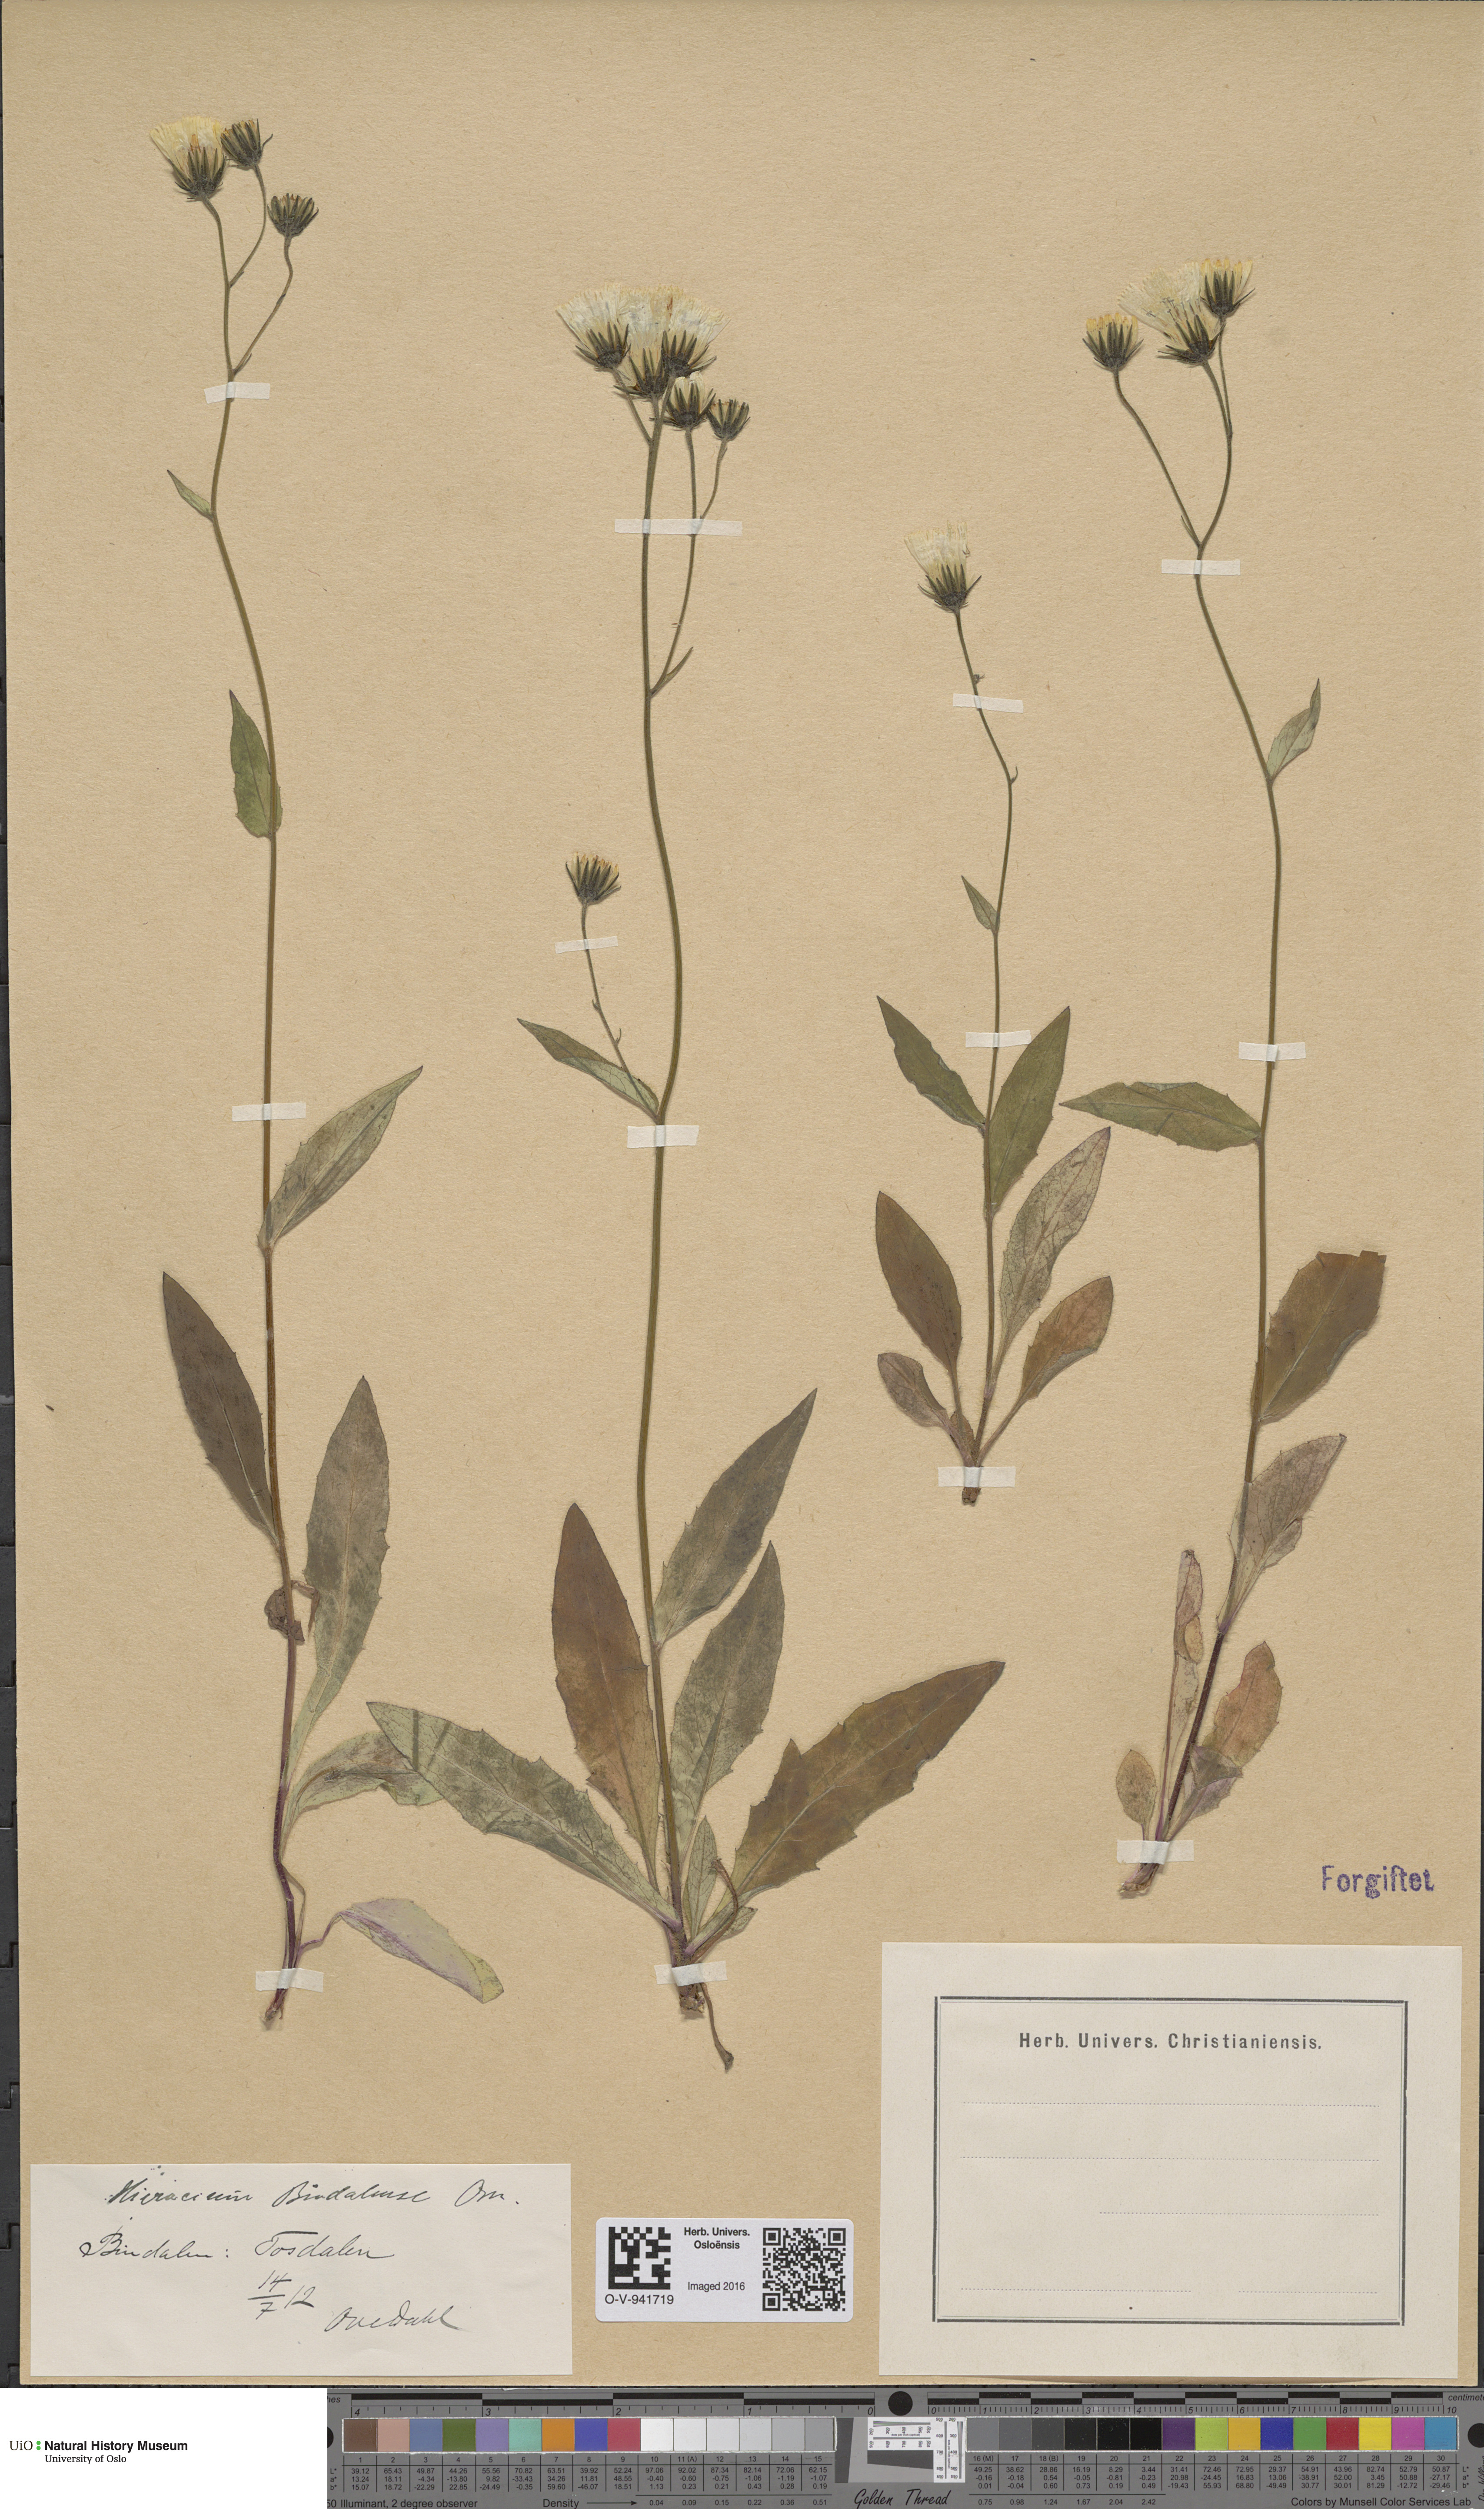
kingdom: Plantae
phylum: Tracheophyta
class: Magnoliopsida
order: Asterales
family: Asteraceae
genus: Hieracium
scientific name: Hieracium bindalense
